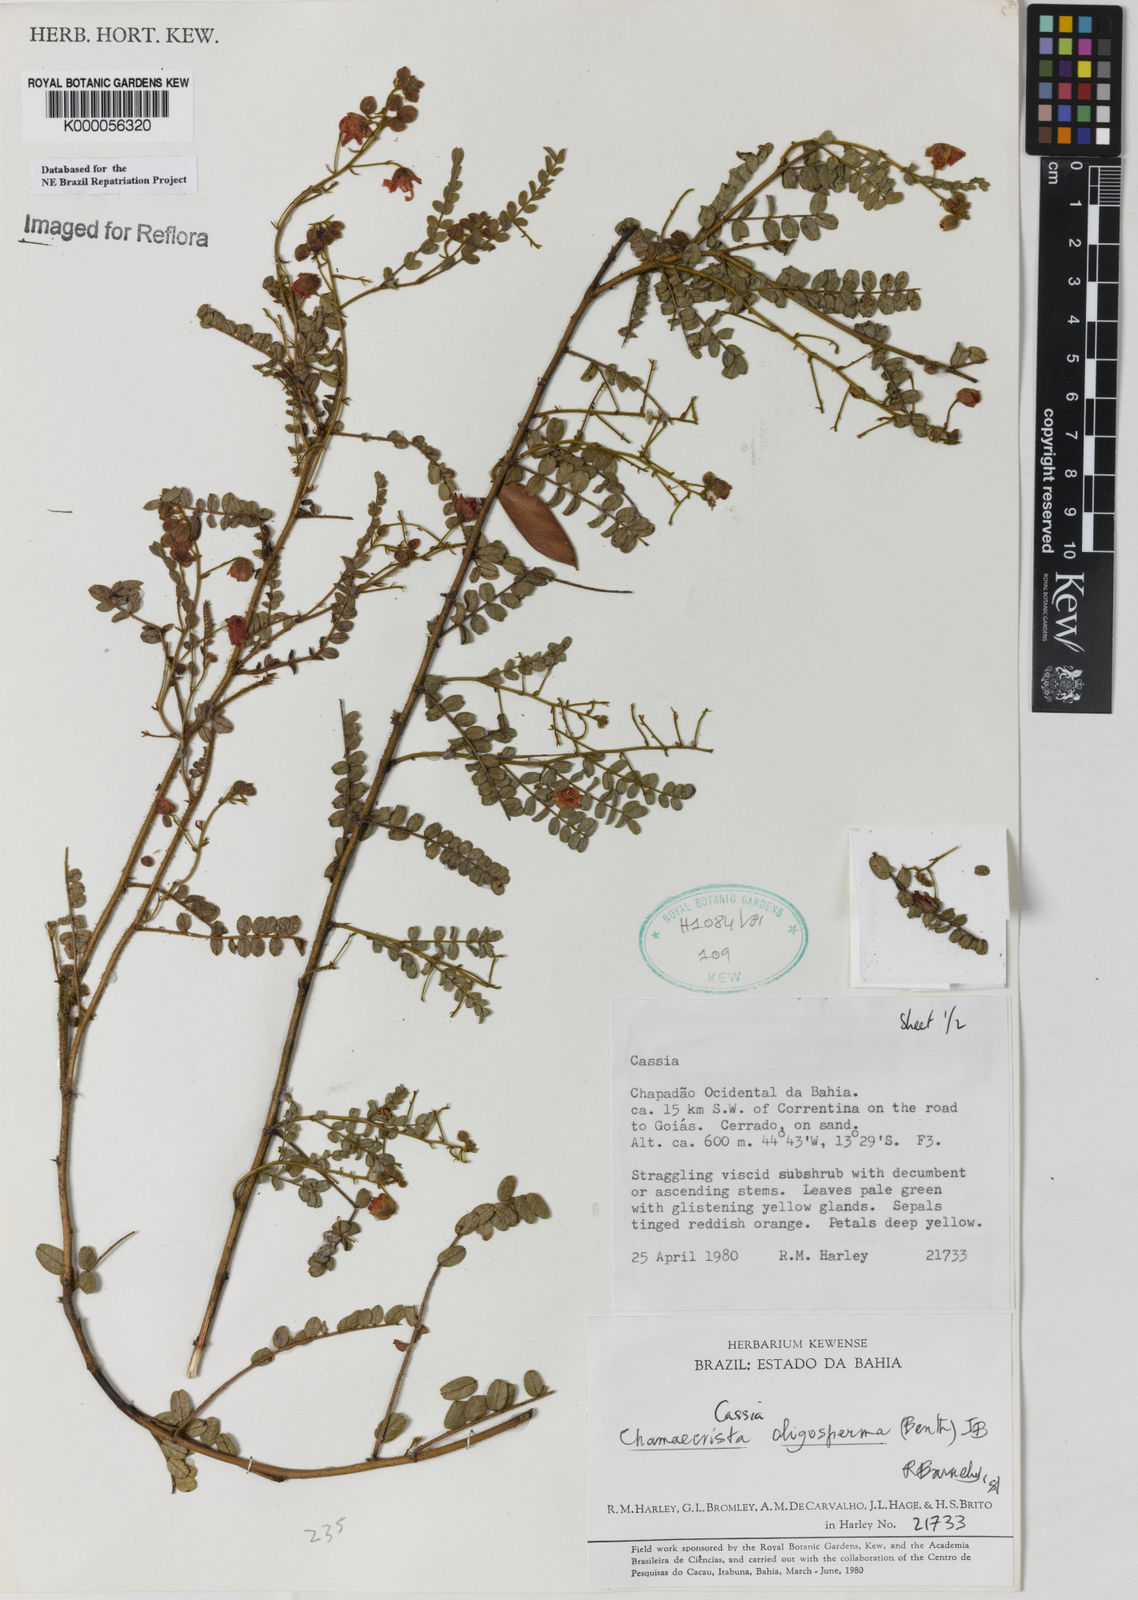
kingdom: Plantae
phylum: Tracheophyta
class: Magnoliopsida
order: Fabales
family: Fabaceae
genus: Chamaecrista
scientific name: Chamaecrista oligosperma
